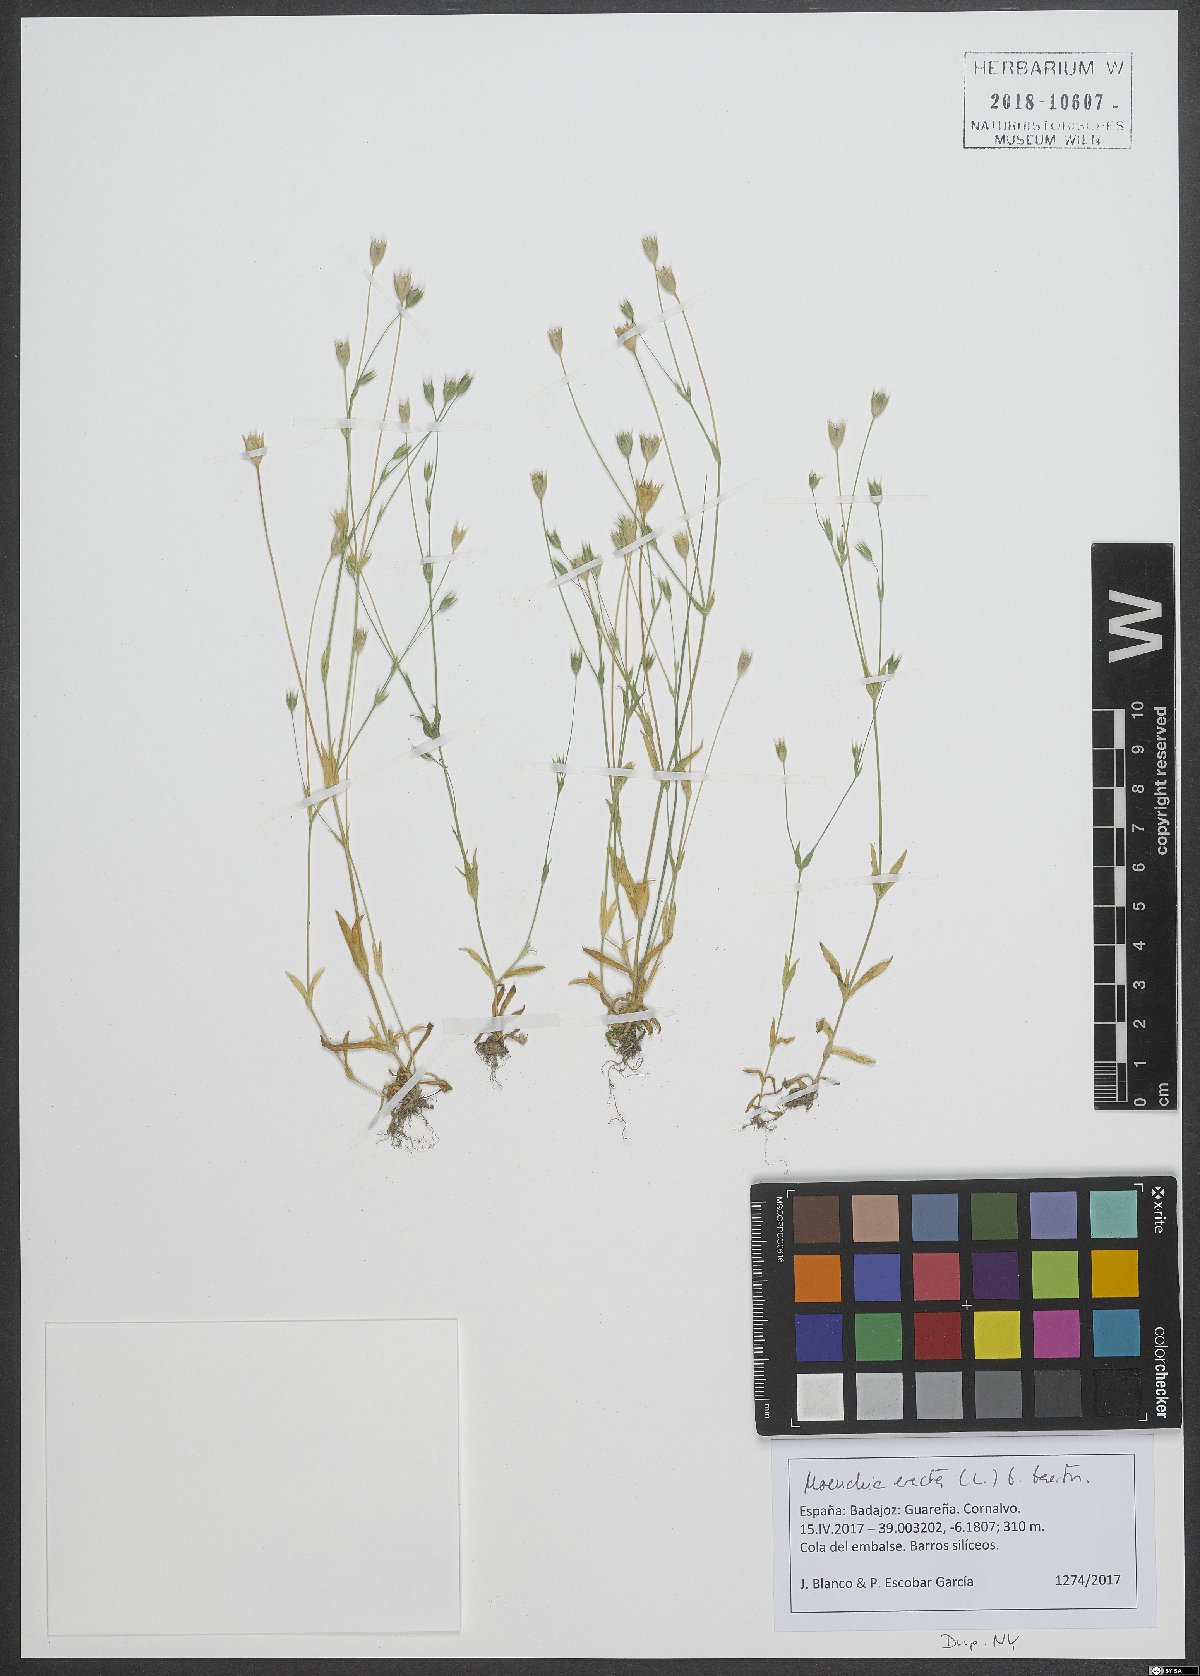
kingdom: Plantae
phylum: Tracheophyta
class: Magnoliopsida
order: Caryophyllales
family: Caryophyllaceae
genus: Moenchia
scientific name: Moenchia erecta
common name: Upright chickweed
